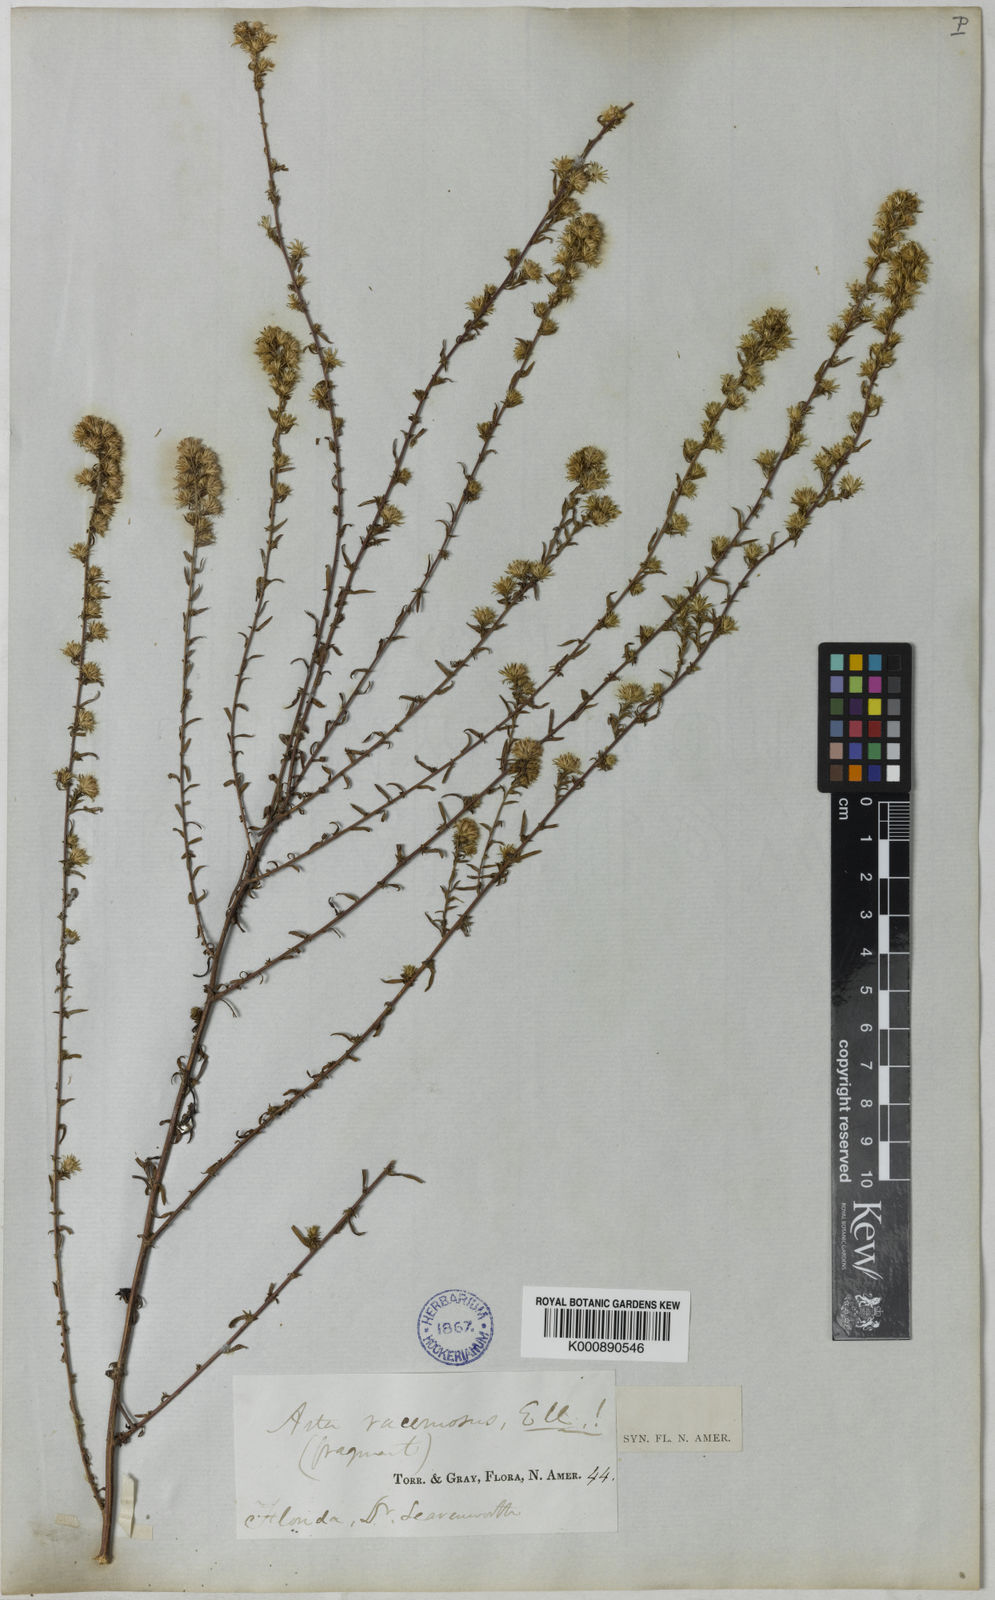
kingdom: Plantae
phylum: Tracheophyta
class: Magnoliopsida
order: Asterales
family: Asteraceae
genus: Symphyotrichum
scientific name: Symphyotrichum racemosum
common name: Small white aster
